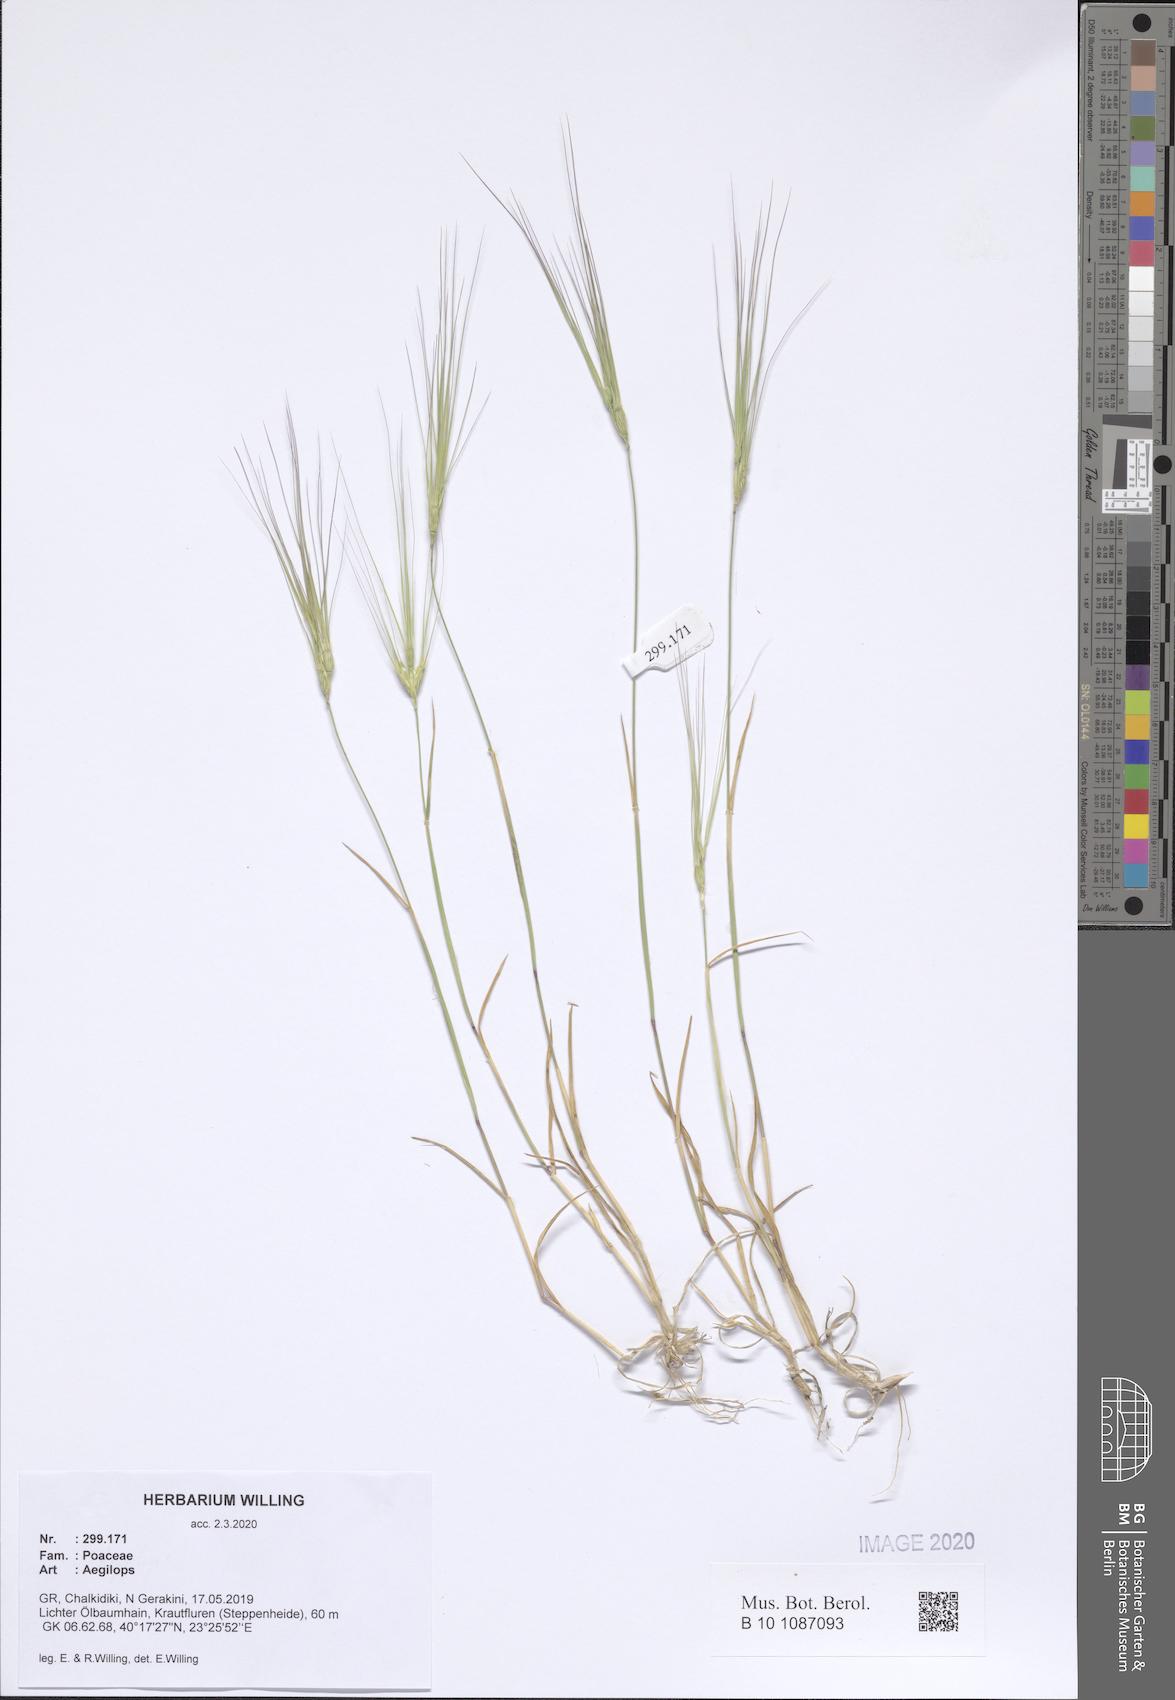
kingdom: Plantae
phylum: Tracheophyta
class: Liliopsida
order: Poales
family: Poaceae
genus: Aegilops
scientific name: Aegilops
